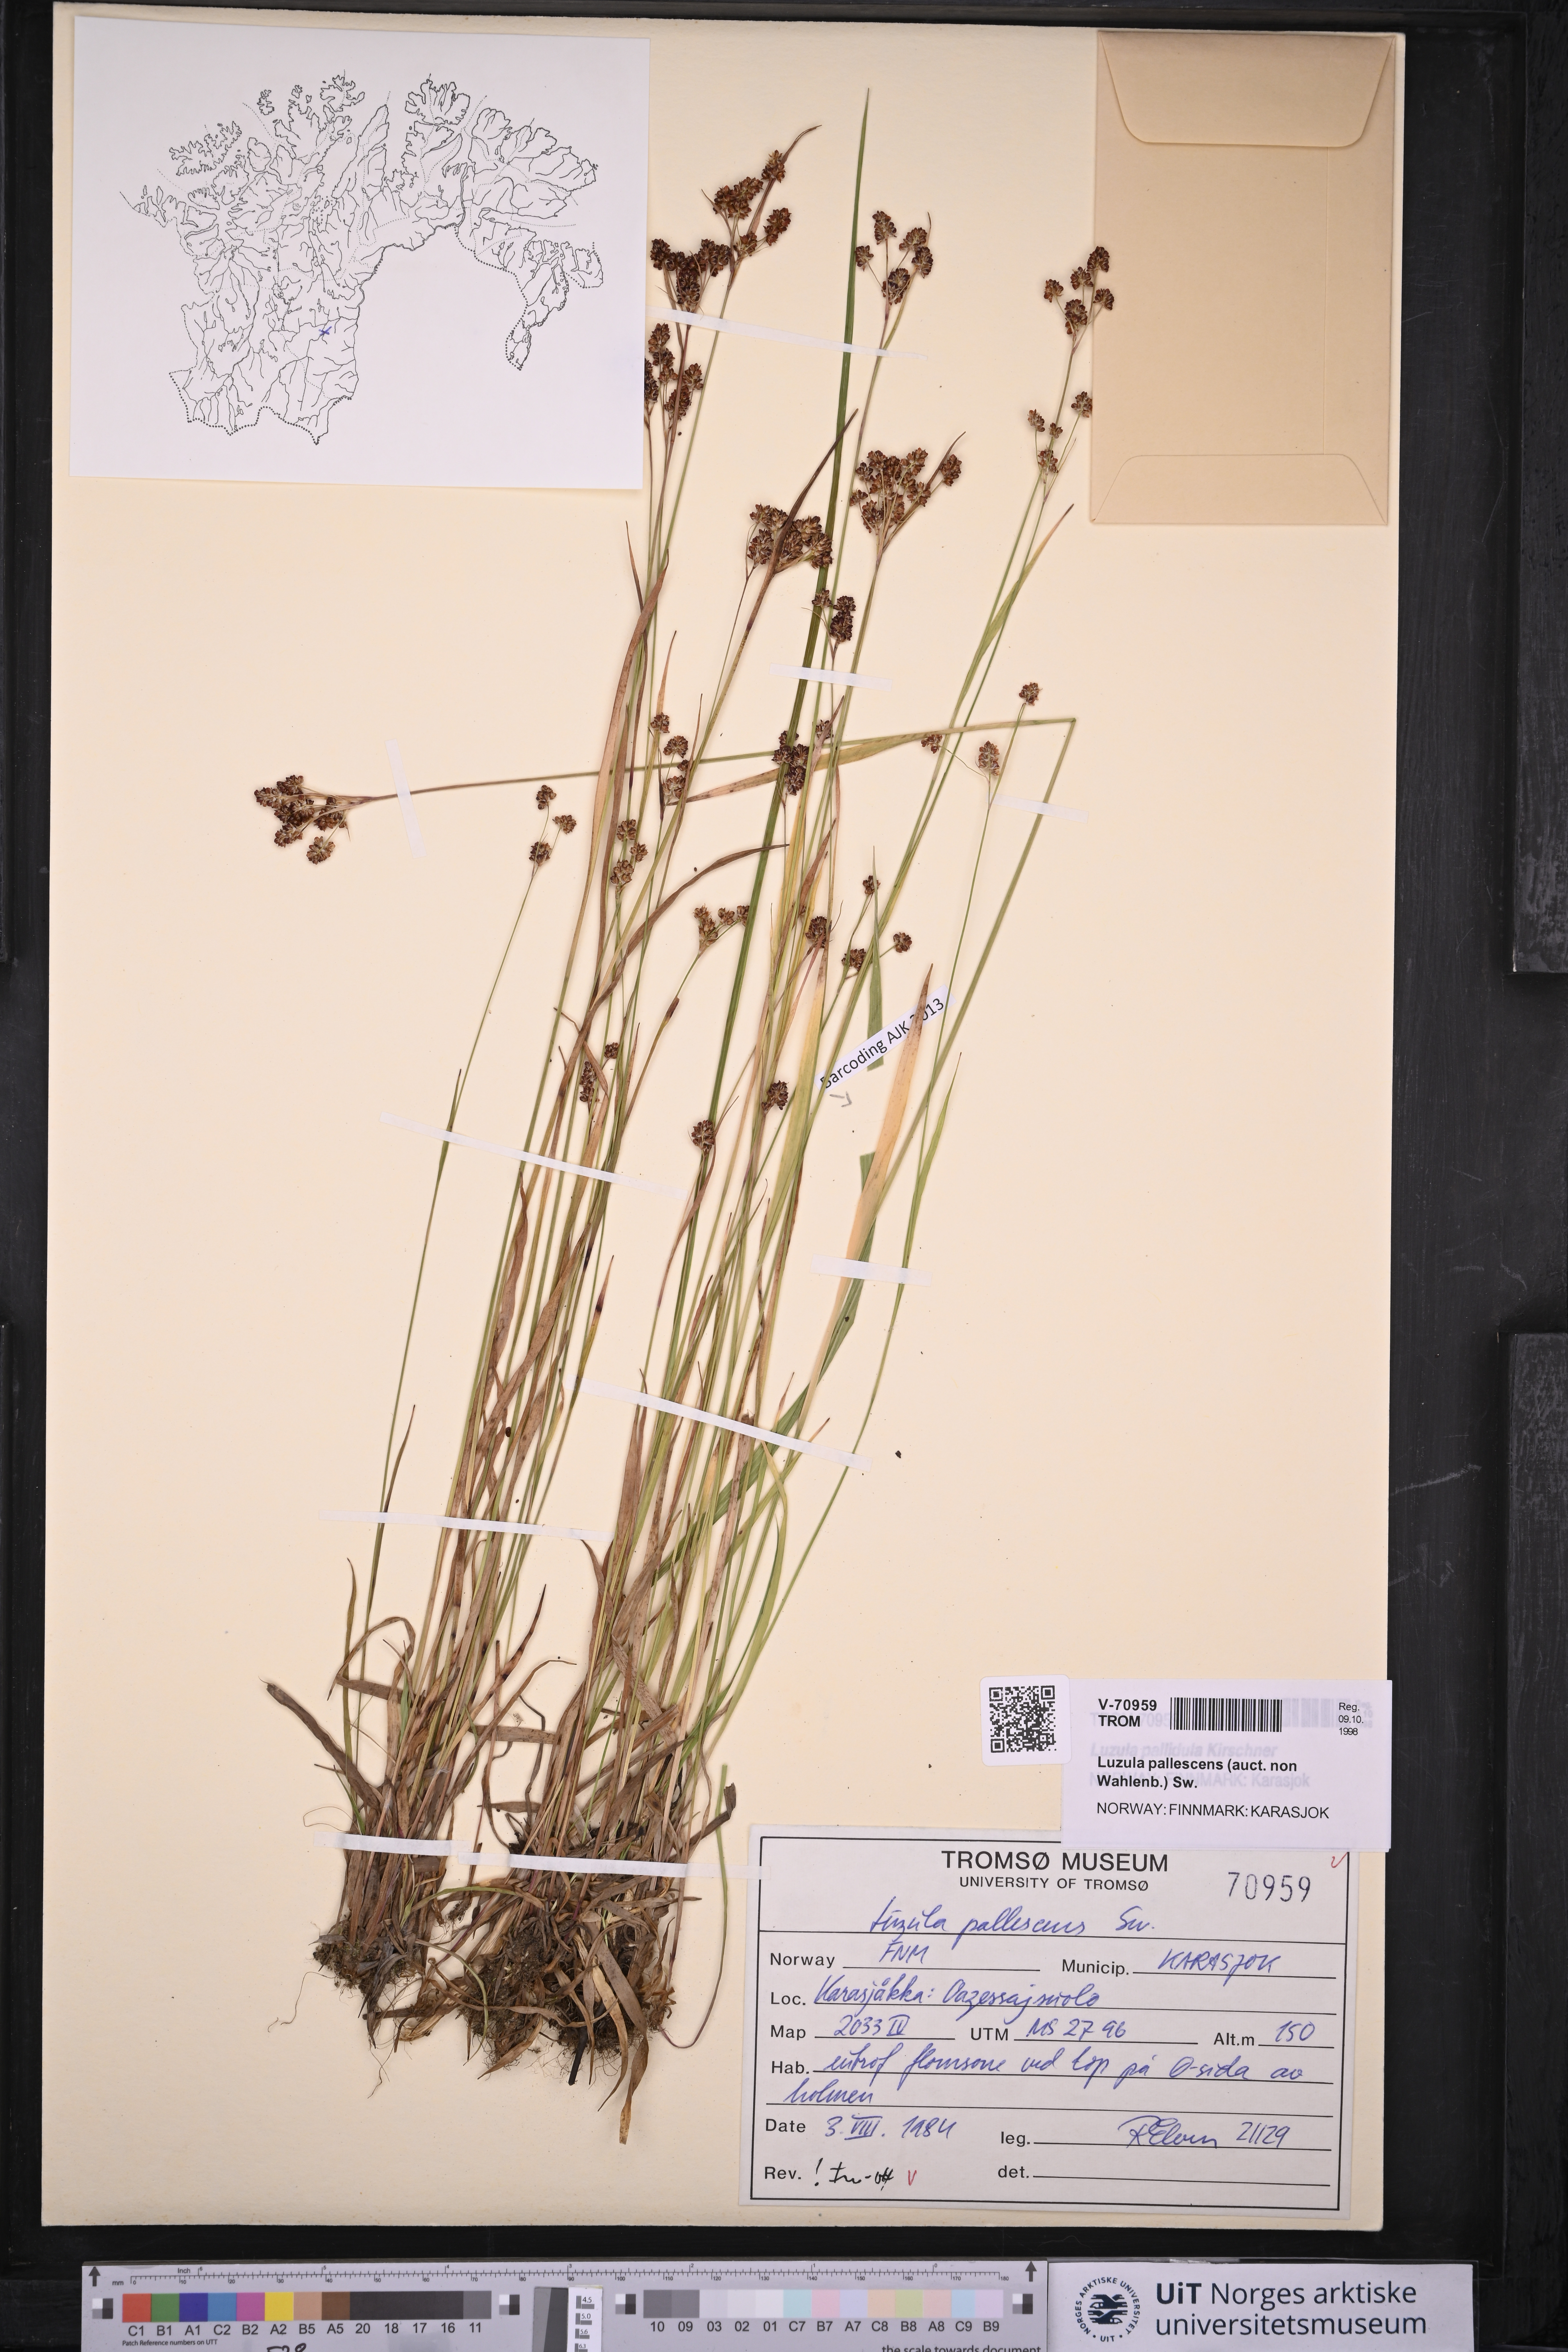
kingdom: Plantae
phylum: Tracheophyta
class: Liliopsida
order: Poales
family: Juncaceae
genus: Luzula
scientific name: Luzula pallescens
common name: Fen wood-rush
